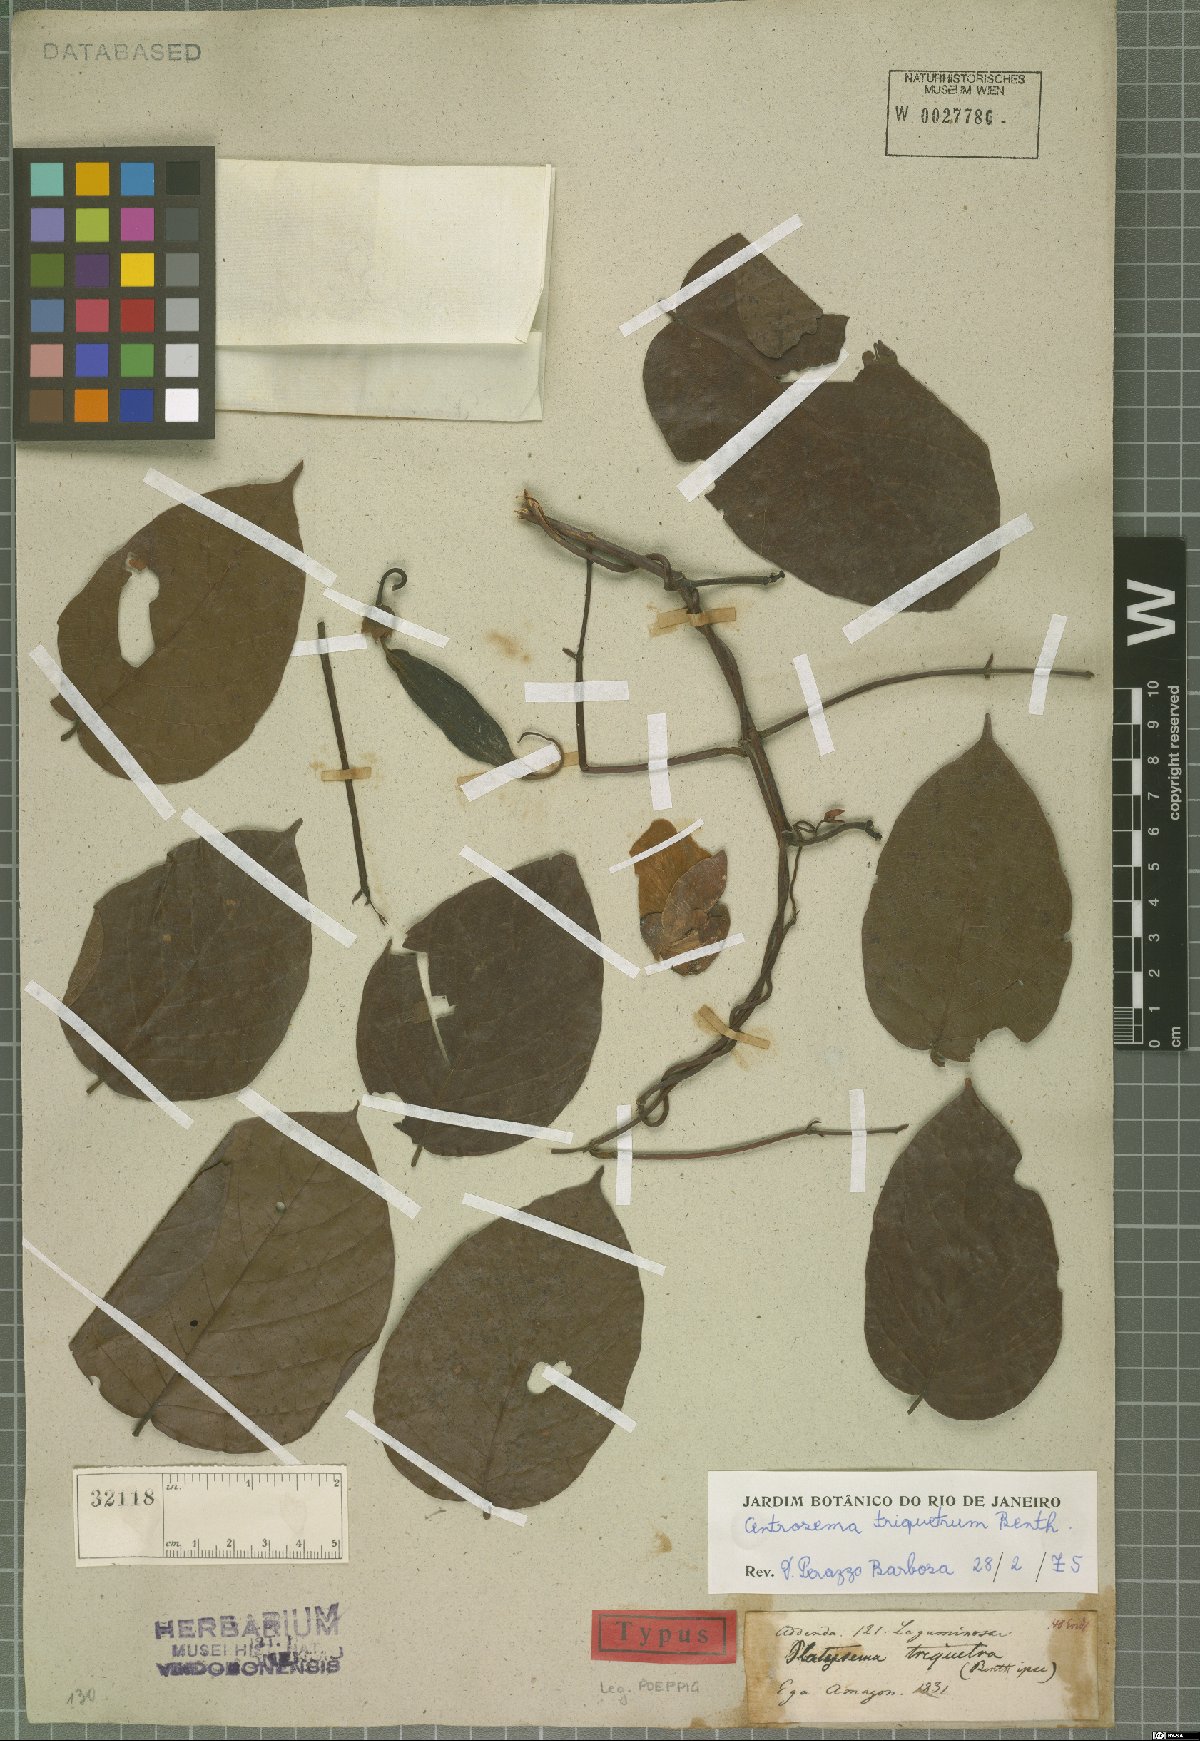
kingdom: Plantae
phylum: Tracheophyta
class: Magnoliopsida
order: Fabales
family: Fabaceae
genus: Centrosema
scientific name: Centrosema triquetrum
